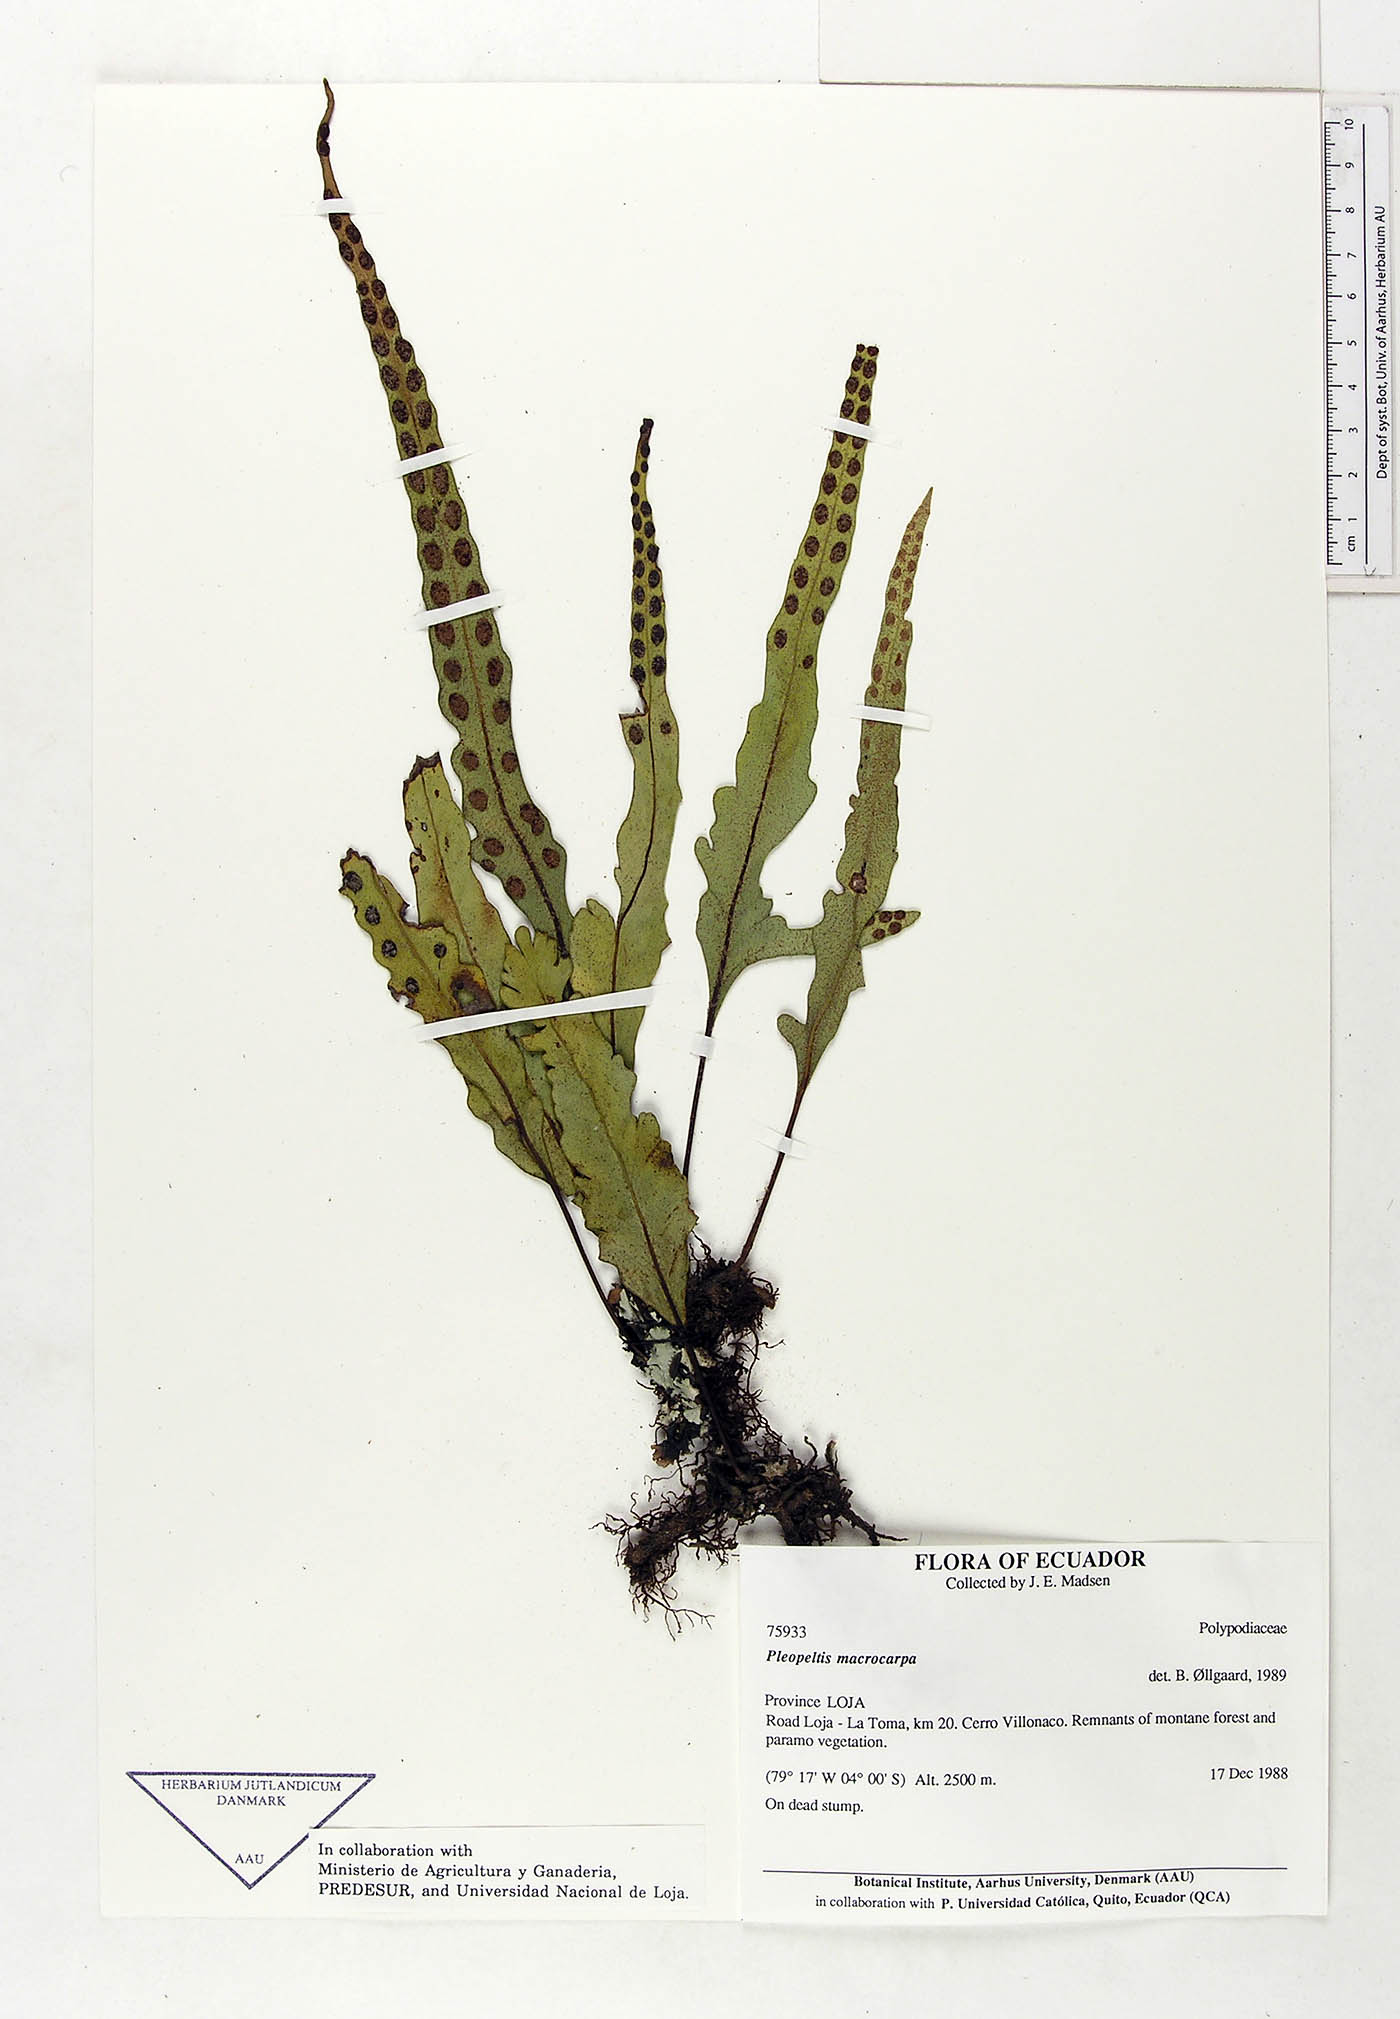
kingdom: Plantae
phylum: Tracheophyta
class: Polypodiopsida
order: Polypodiales
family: Polypodiaceae
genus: Pleopeltis
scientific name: Pleopeltis macrocarpa
